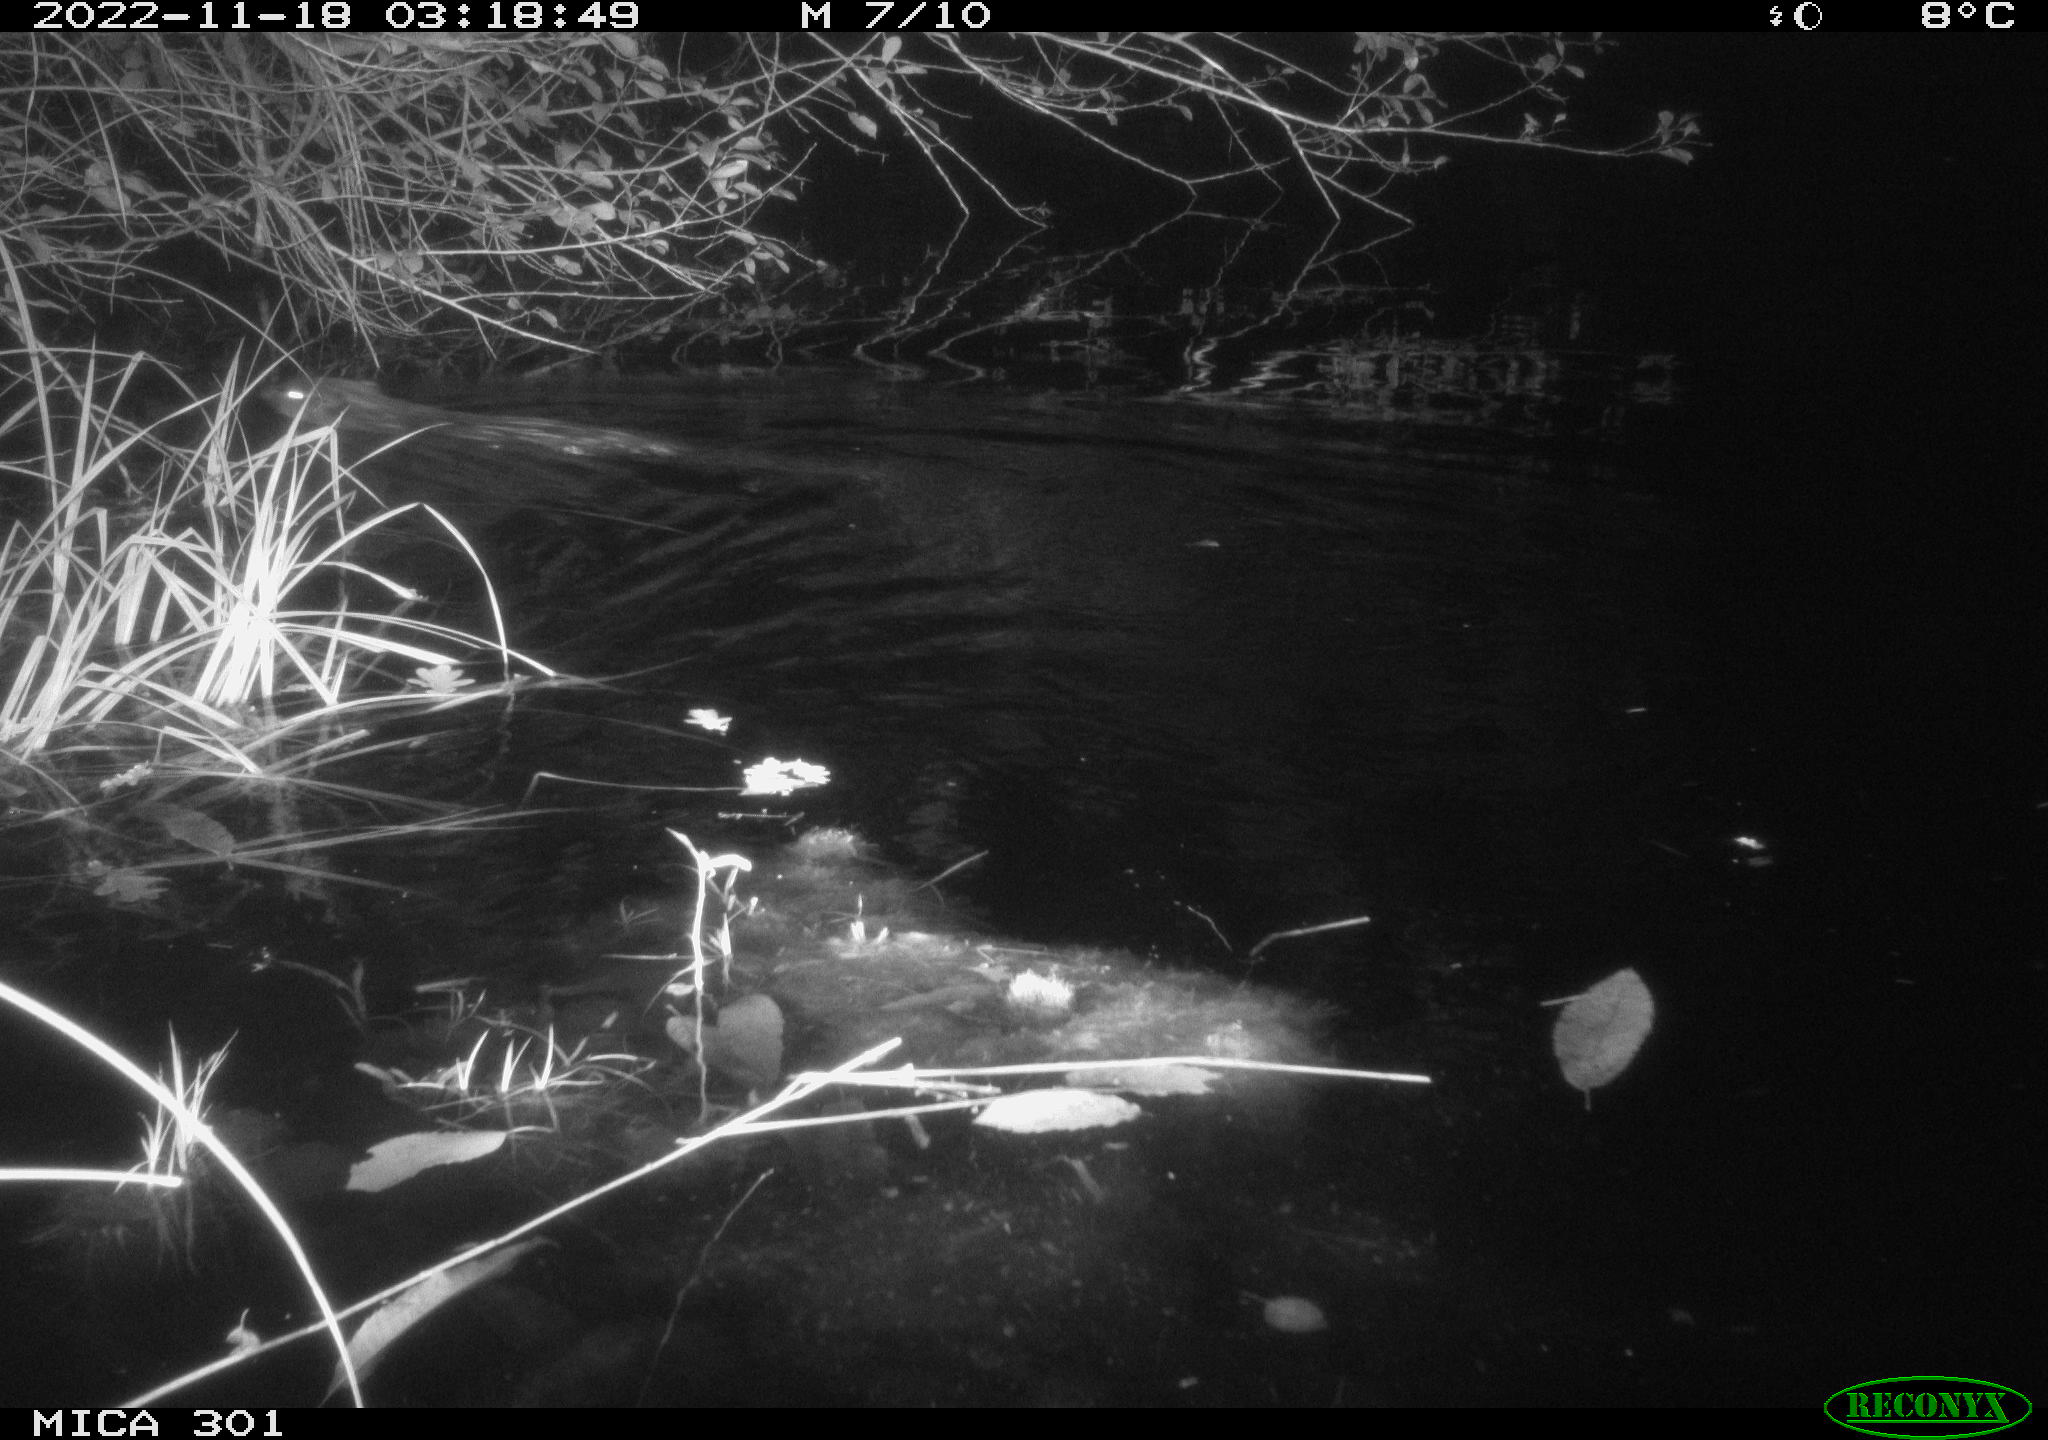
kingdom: Animalia
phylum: Chordata
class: Mammalia
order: Rodentia
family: Castoridae
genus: Castor
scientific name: Castor fiber
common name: Eurasian beaver
